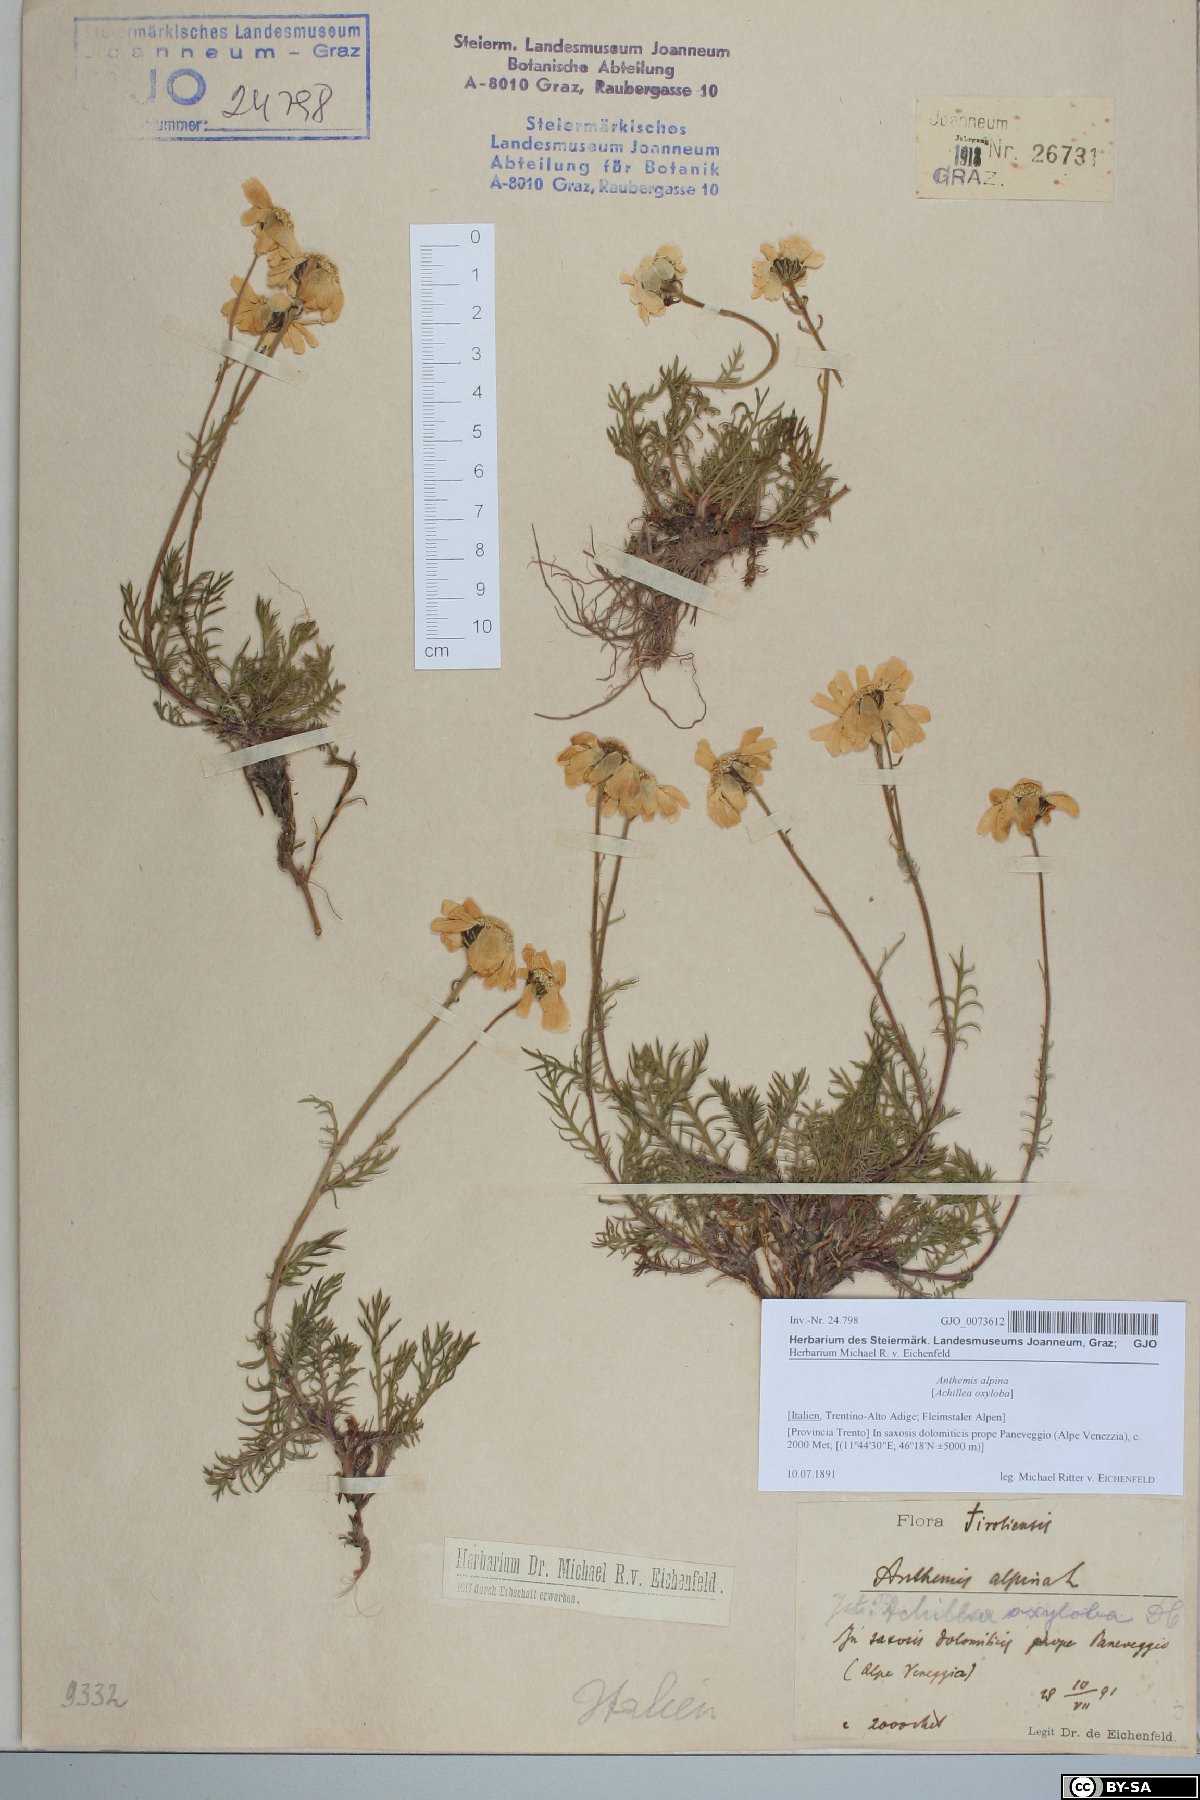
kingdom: Plantae
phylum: Tracheophyta
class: Magnoliopsida
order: Asterales
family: Asteraceae
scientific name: Asteraceae
